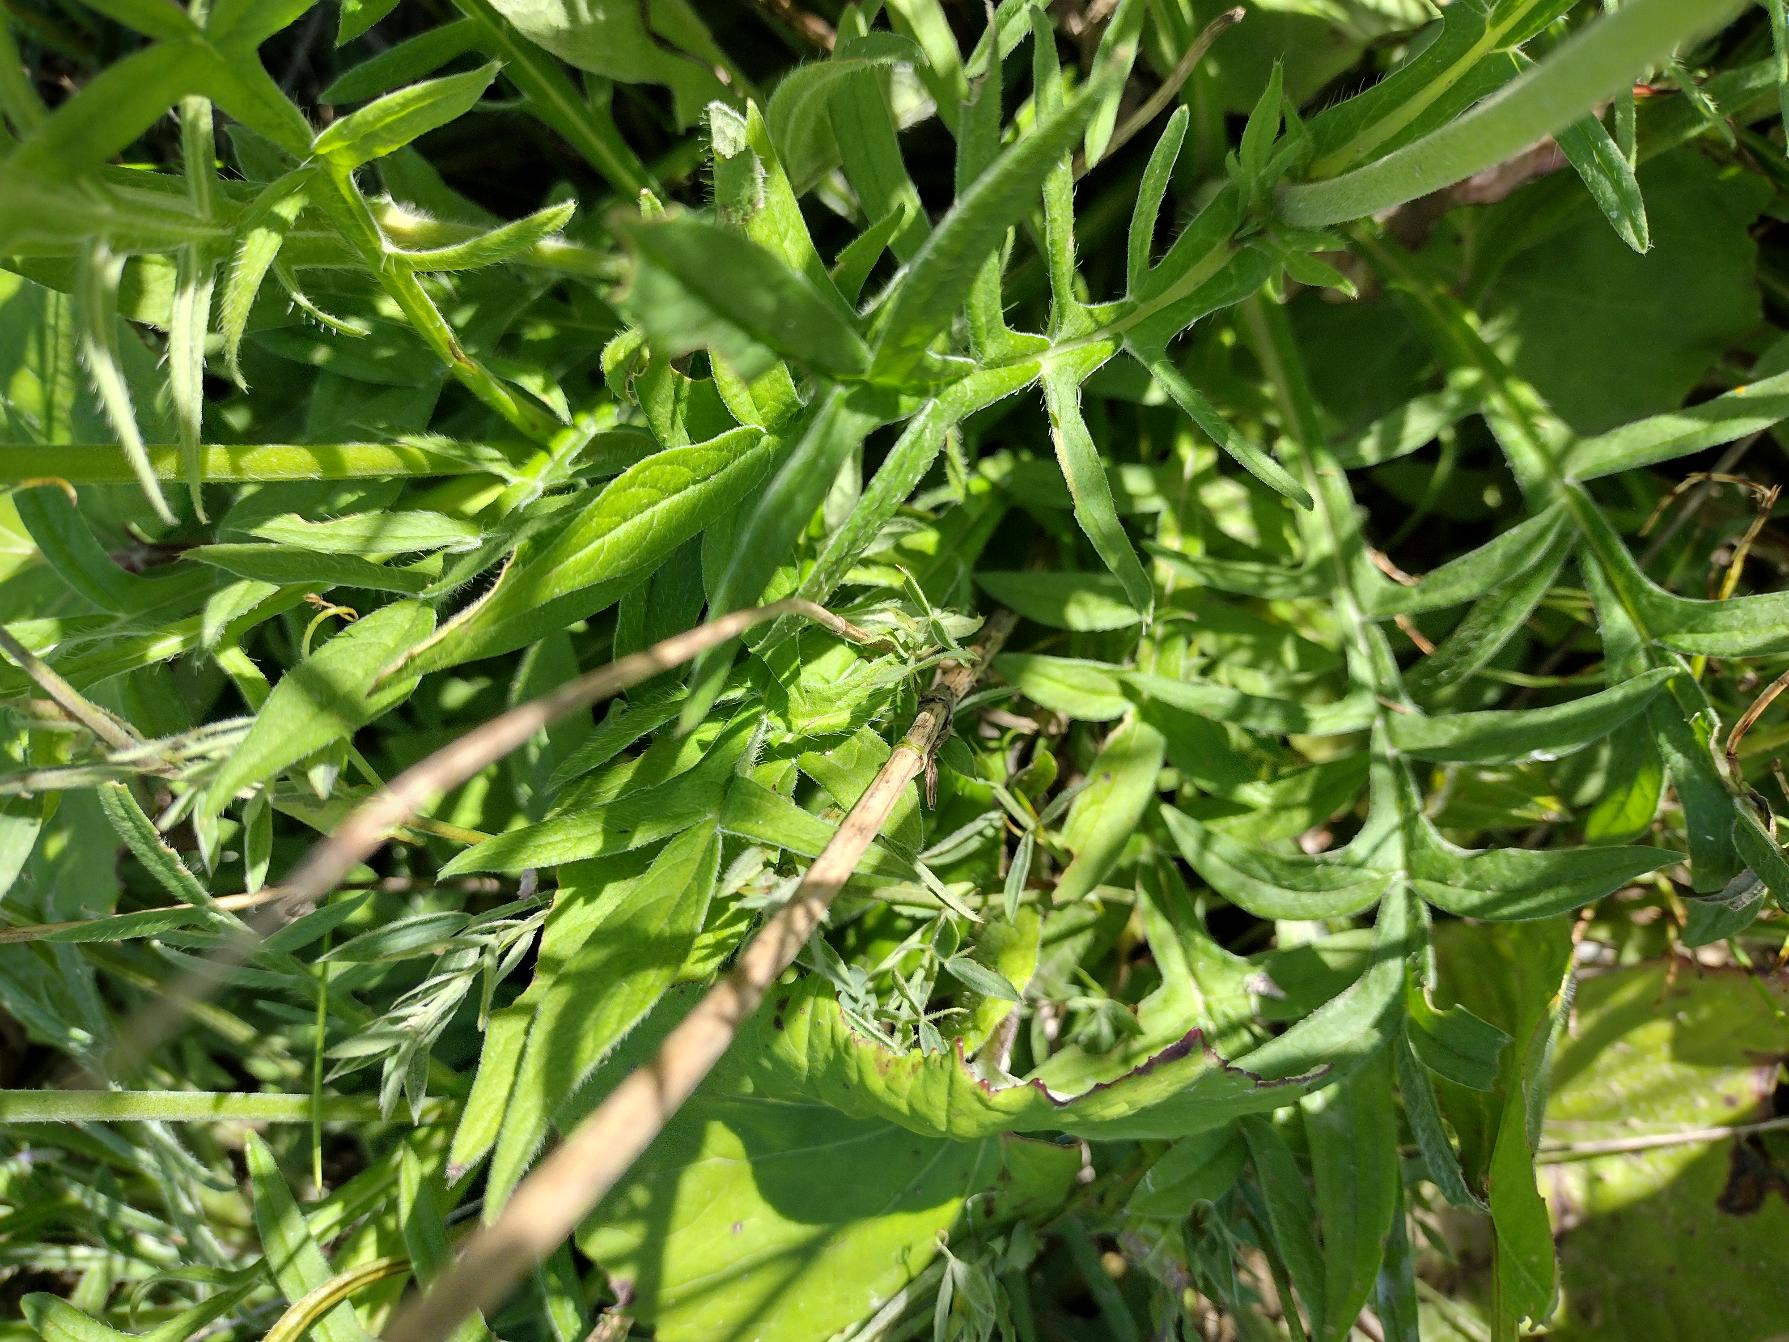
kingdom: Plantae
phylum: Tracheophyta
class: Magnoliopsida
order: Dipsacales
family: Caprifoliaceae
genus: Knautia
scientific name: Knautia arvensis
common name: Blåhat
